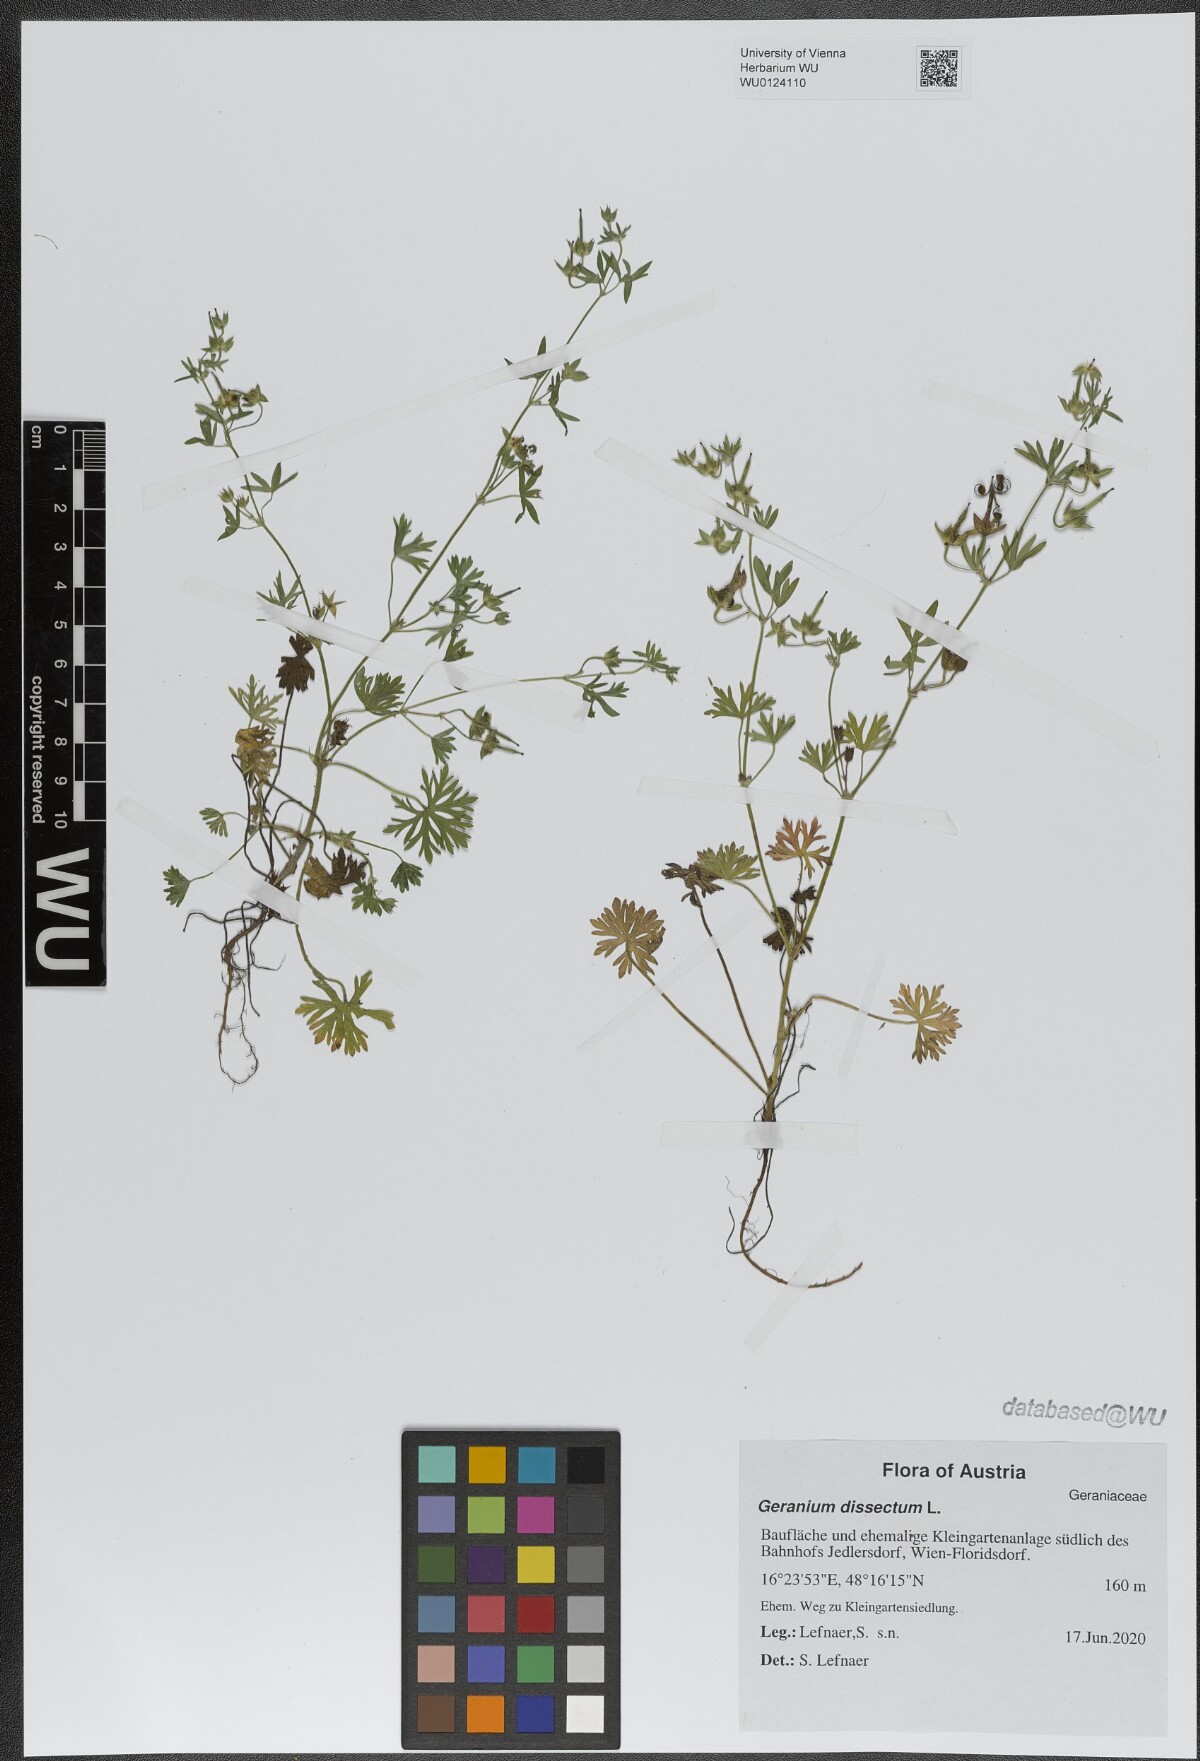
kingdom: Plantae
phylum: Tracheophyta
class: Magnoliopsida
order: Geraniales
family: Geraniaceae
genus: Geranium
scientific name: Geranium dissectum
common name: Cut-leaved crane's-bill
